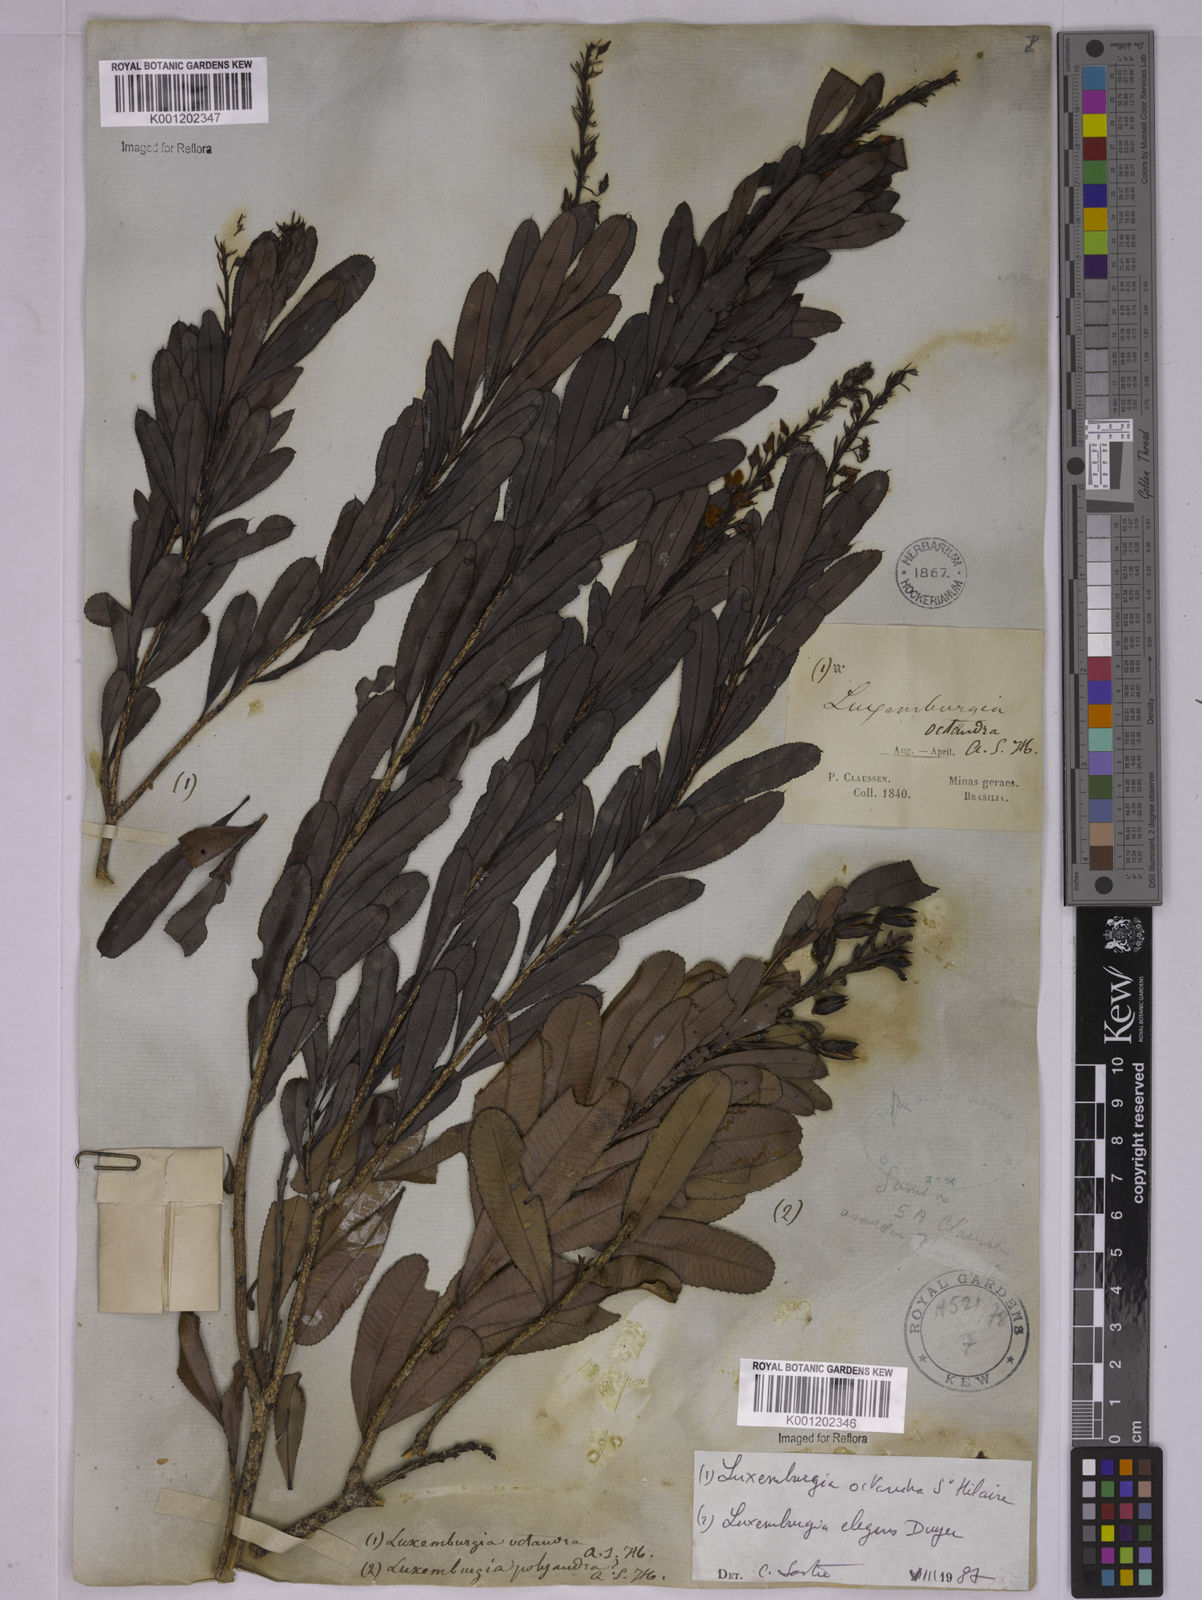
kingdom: Plantae
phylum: Tracheophyta
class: Magnoliopsida
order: Malpighiales
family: Ochnaceae
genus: Luxemburgia
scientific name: Luxemburgia octandra
